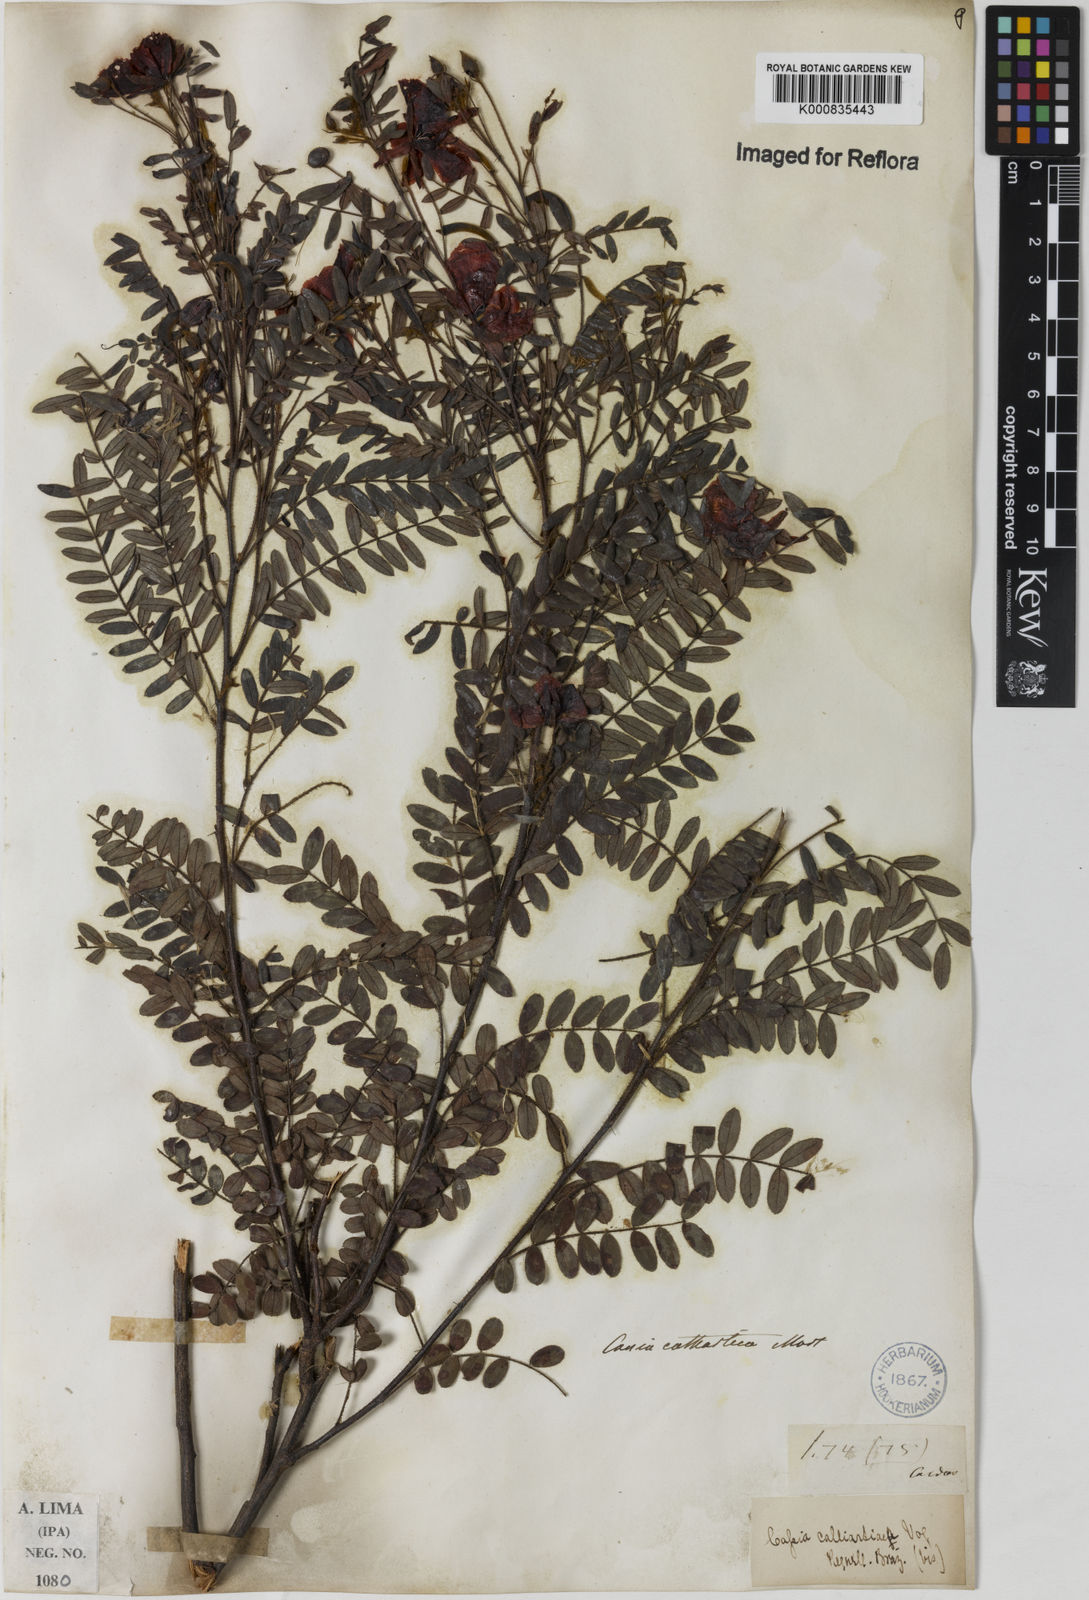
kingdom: Plantae
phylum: Tracheophyta
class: Magnoliopsida
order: Fabales
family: Fabaceae
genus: Chamaecrista
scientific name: Chamaecrista cathartica
